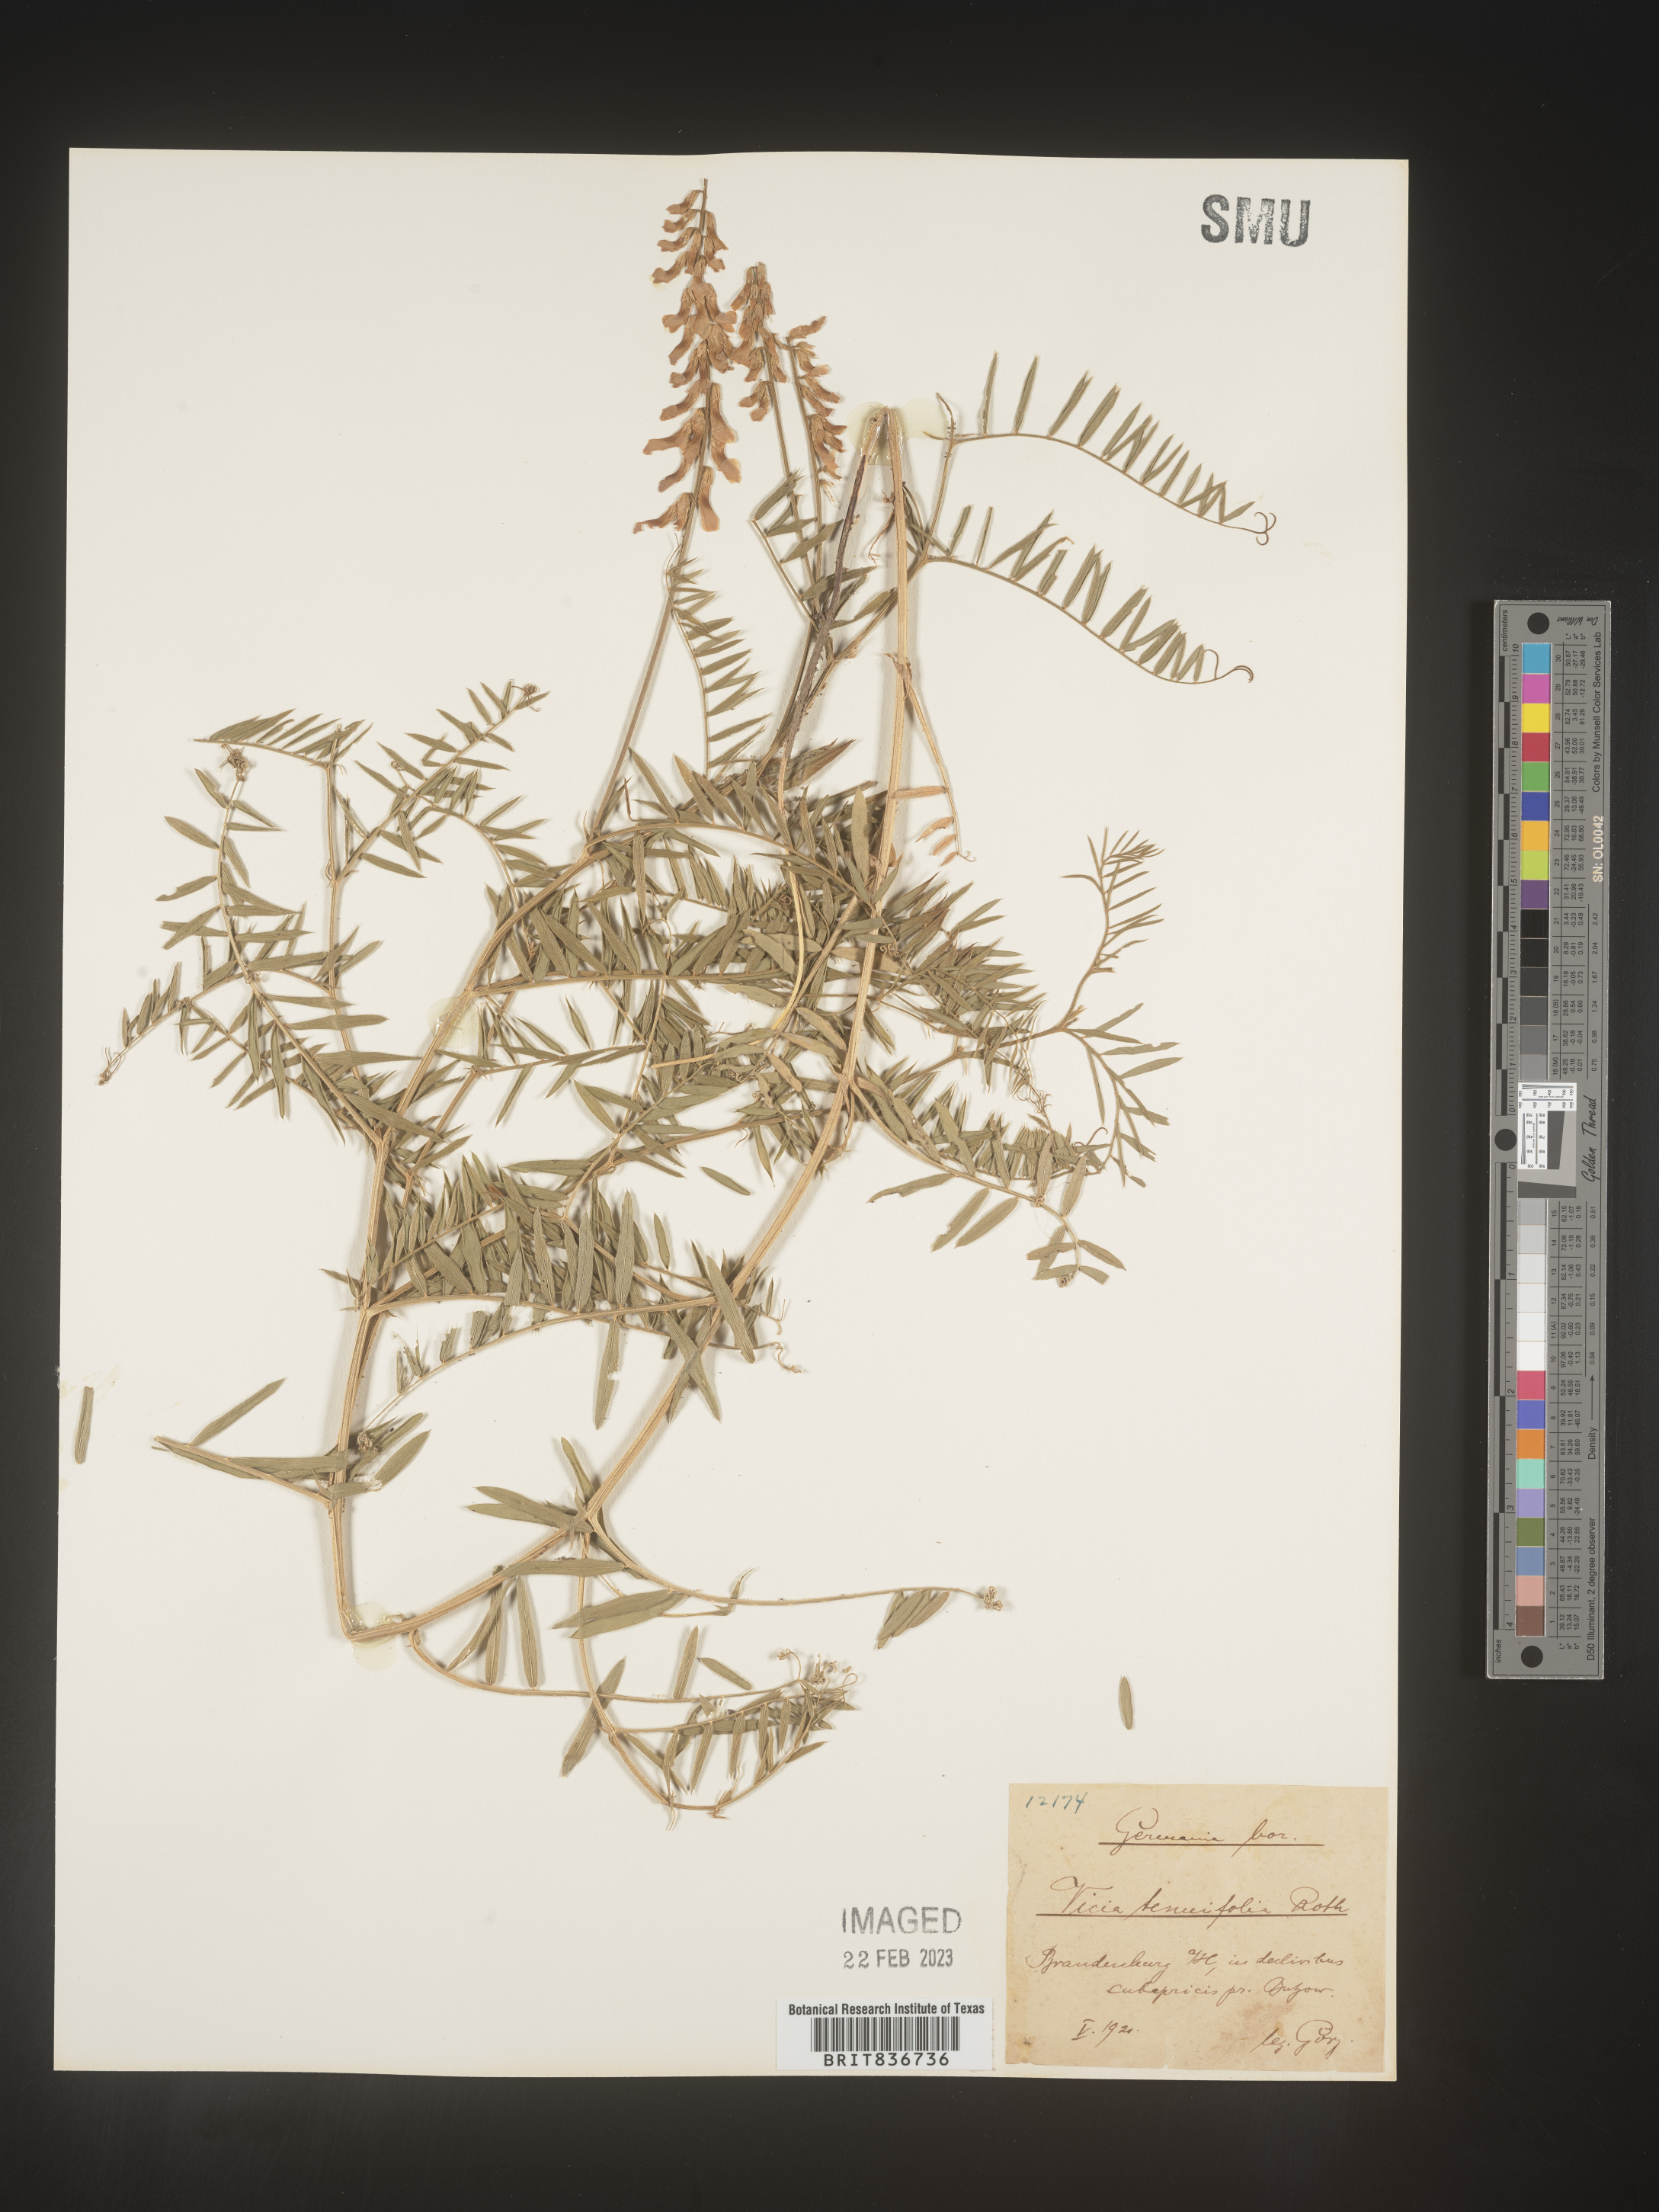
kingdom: Plantae
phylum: Tracheophyta
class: Magnoliopsida
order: Fabales
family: Fabaceae
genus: Vicia
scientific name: Vicia
